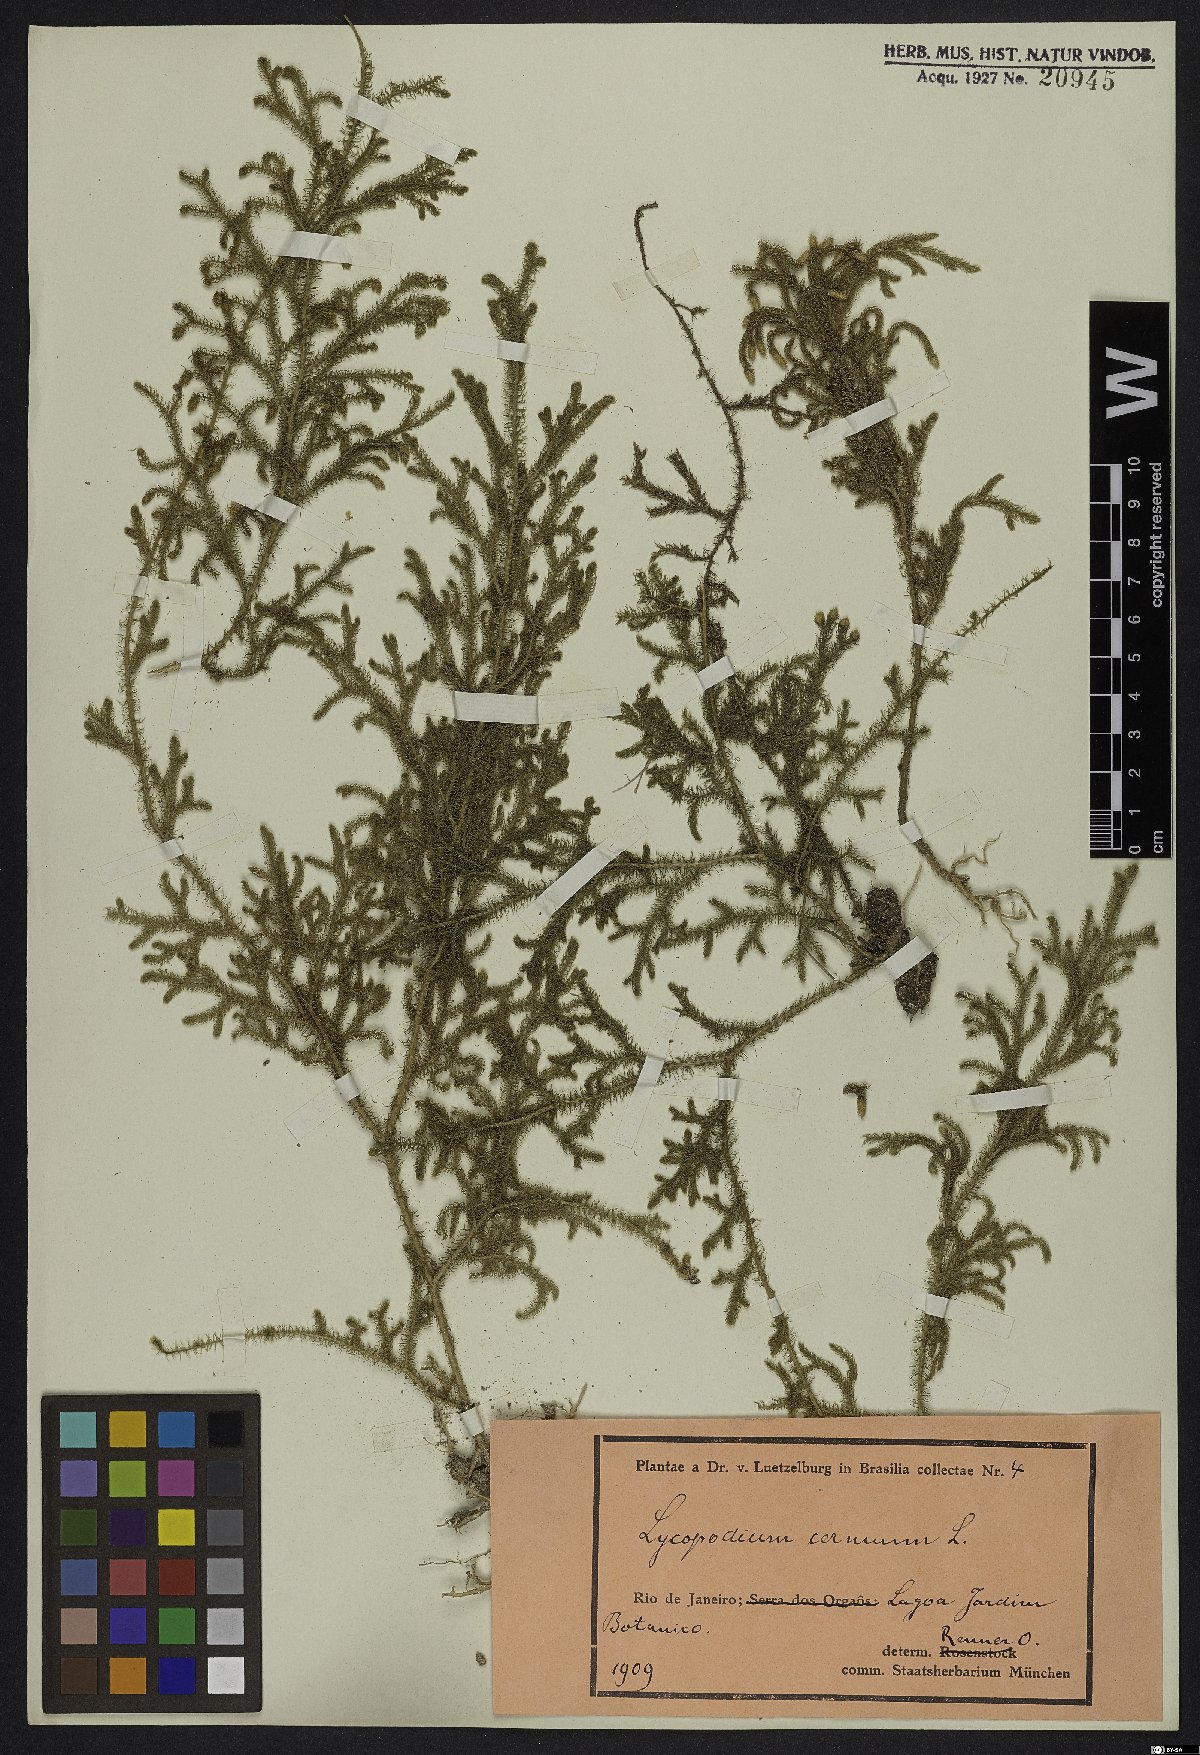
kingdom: Plantae
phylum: Tracheophyta
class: Lycopodiopsida
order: Lycopodiales
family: Lycopodiaceae
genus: Palhinhaea
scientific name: Palhinhaea cernua
